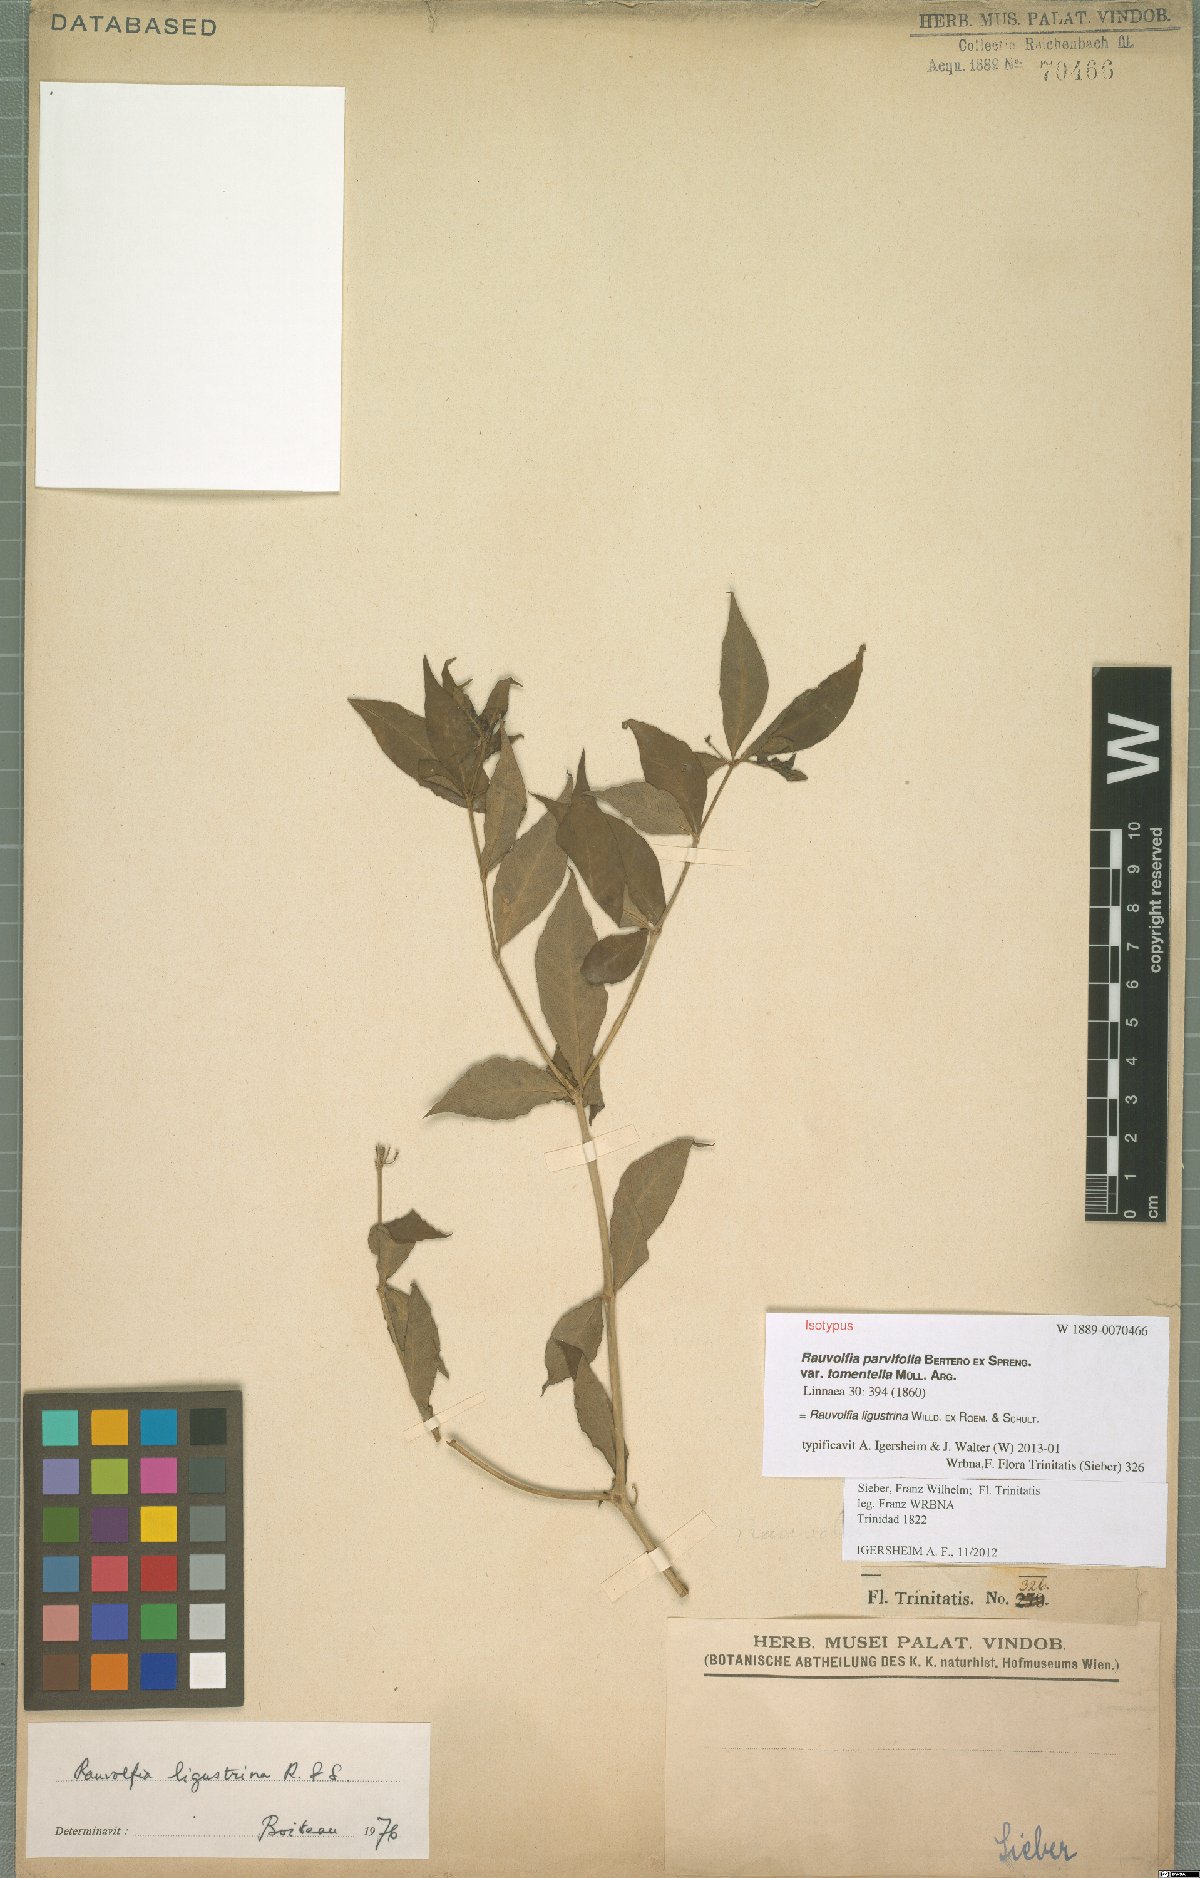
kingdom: Plantae
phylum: Tracheophyta
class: Magnoliopsida
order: Gentianales
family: Apocynaceae
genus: Rauvolfia
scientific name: Rauvolfia ligustrina
